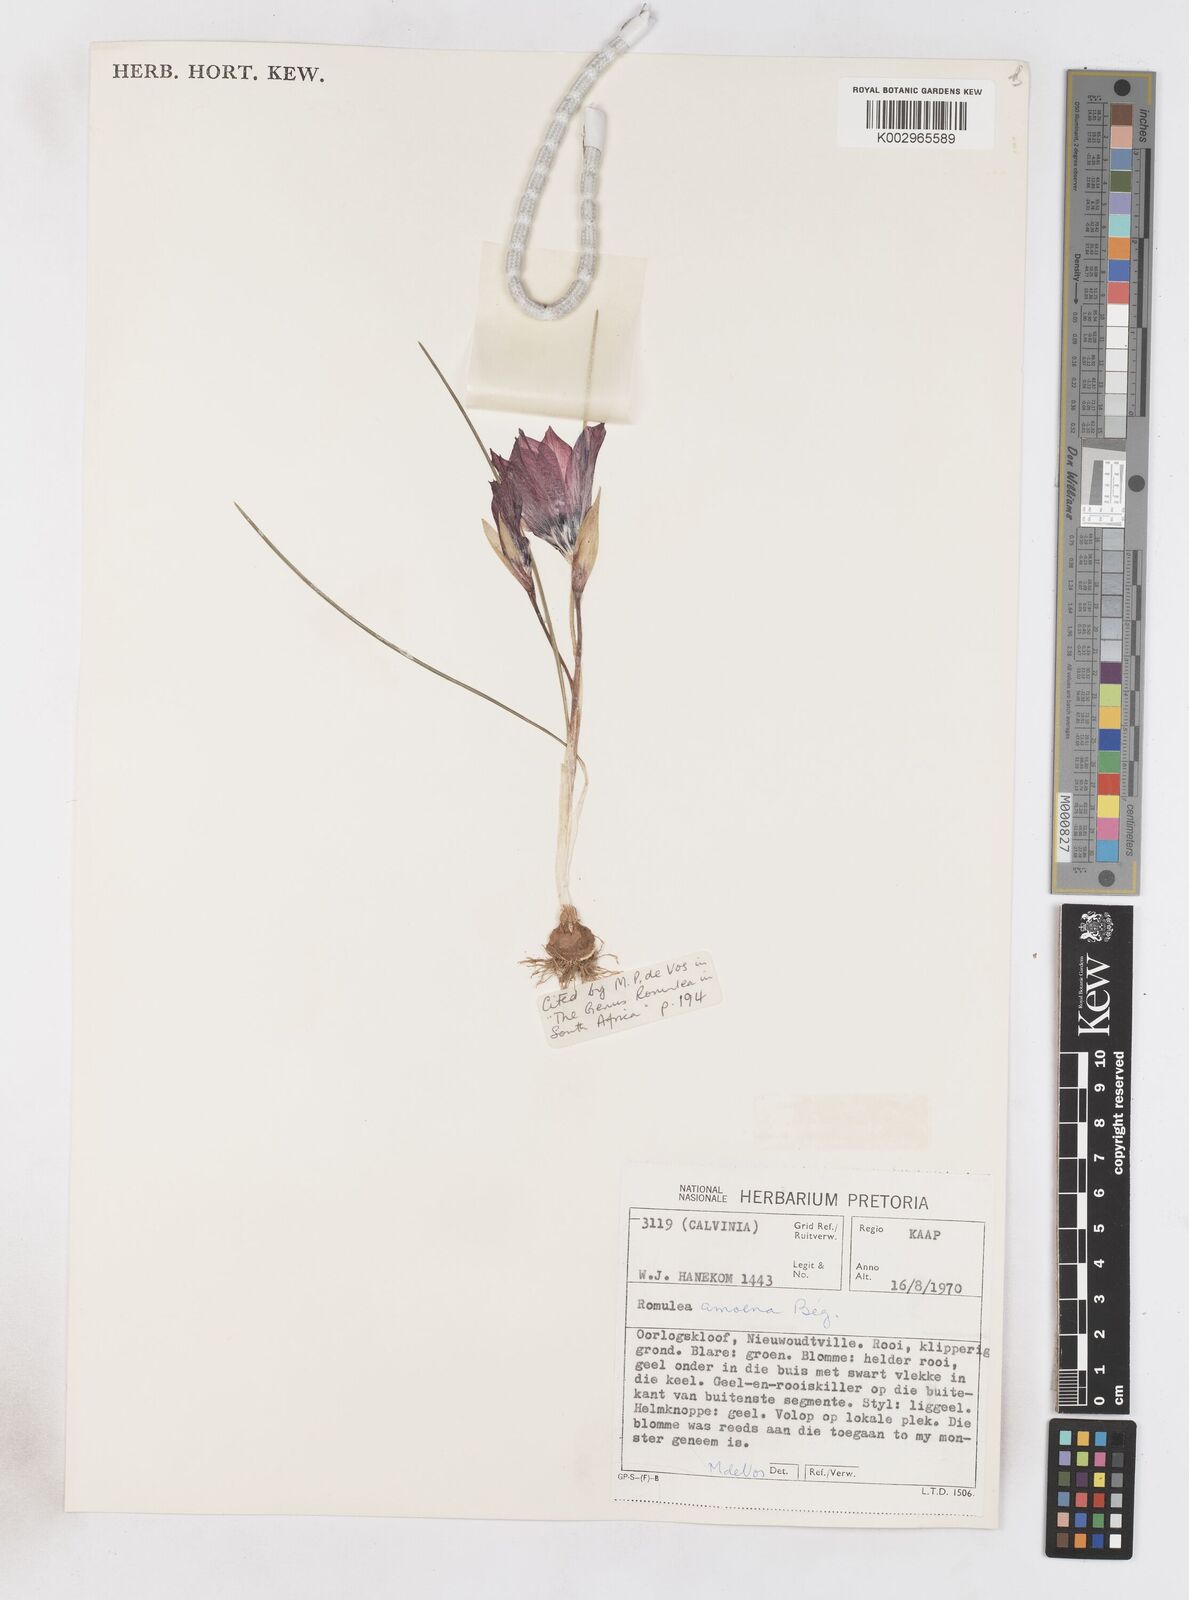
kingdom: Plantae
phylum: Tracheophyta
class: Liliopsida
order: Asparagales
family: Iridaceae
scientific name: Iridaceae
